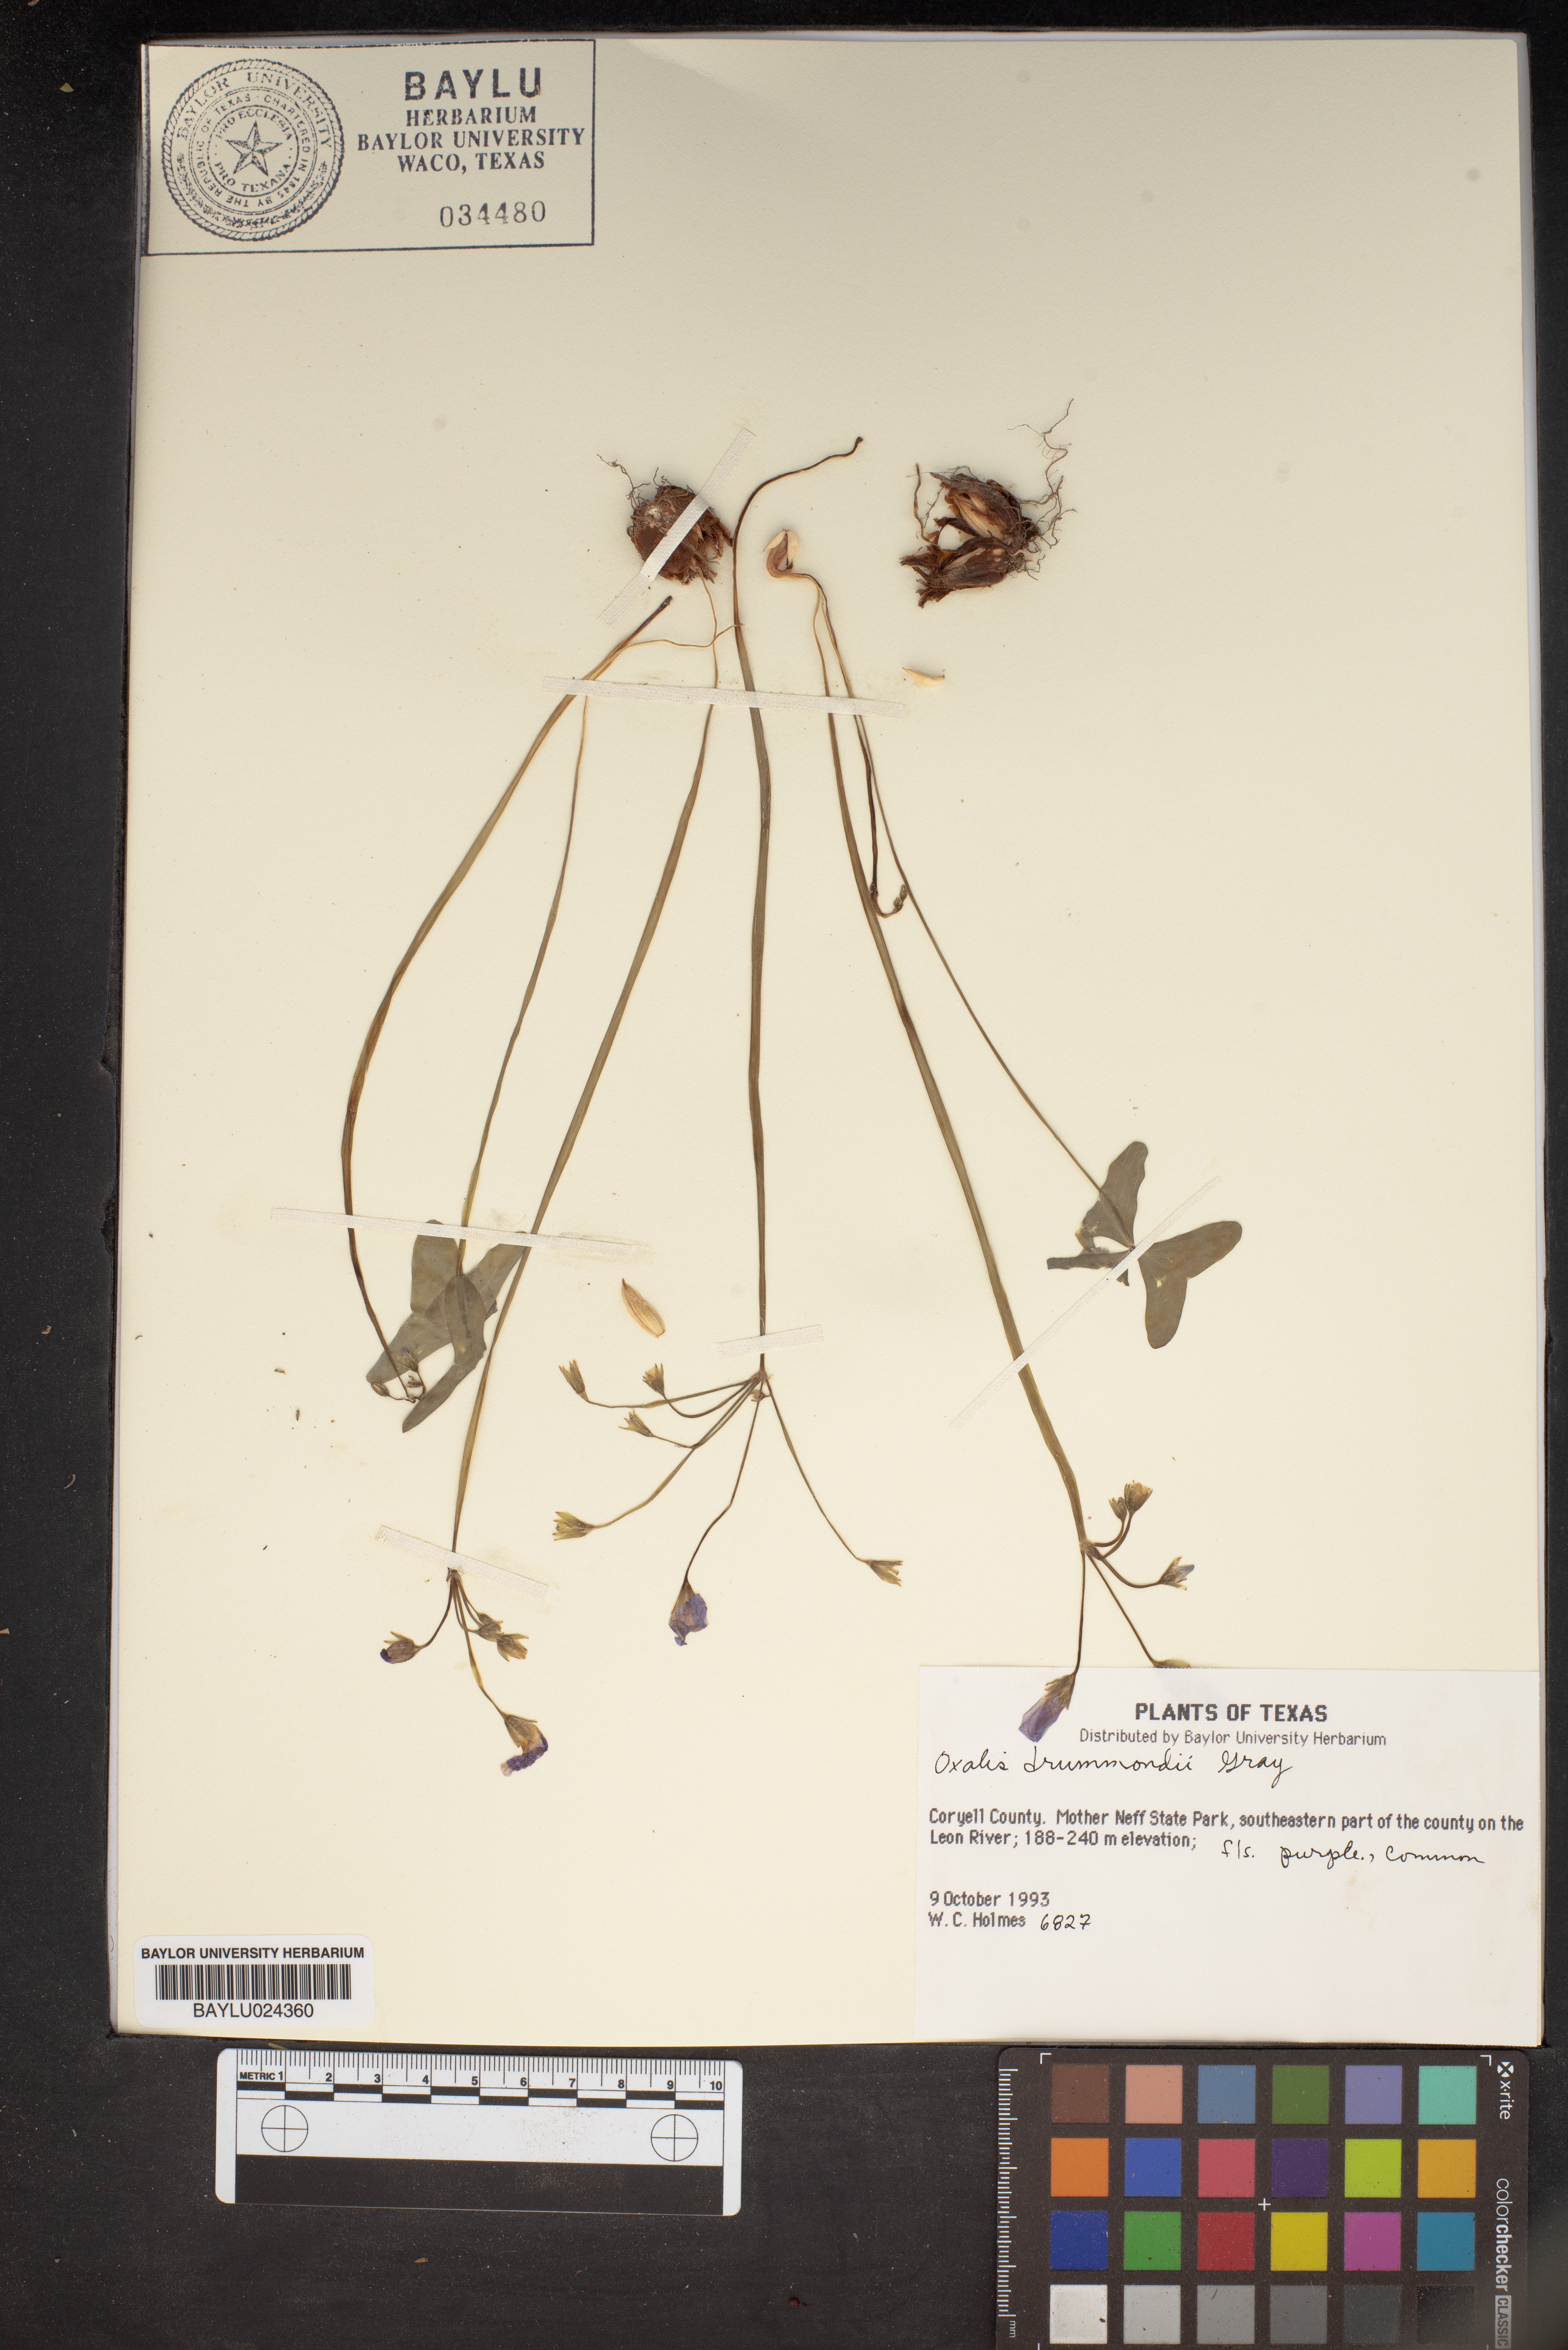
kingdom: Plantae
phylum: Tracheophyta
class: Magnoliopsida
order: Oxalidales
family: Oxalidaceae
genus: Oxalis
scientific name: Oxalis drummondii
